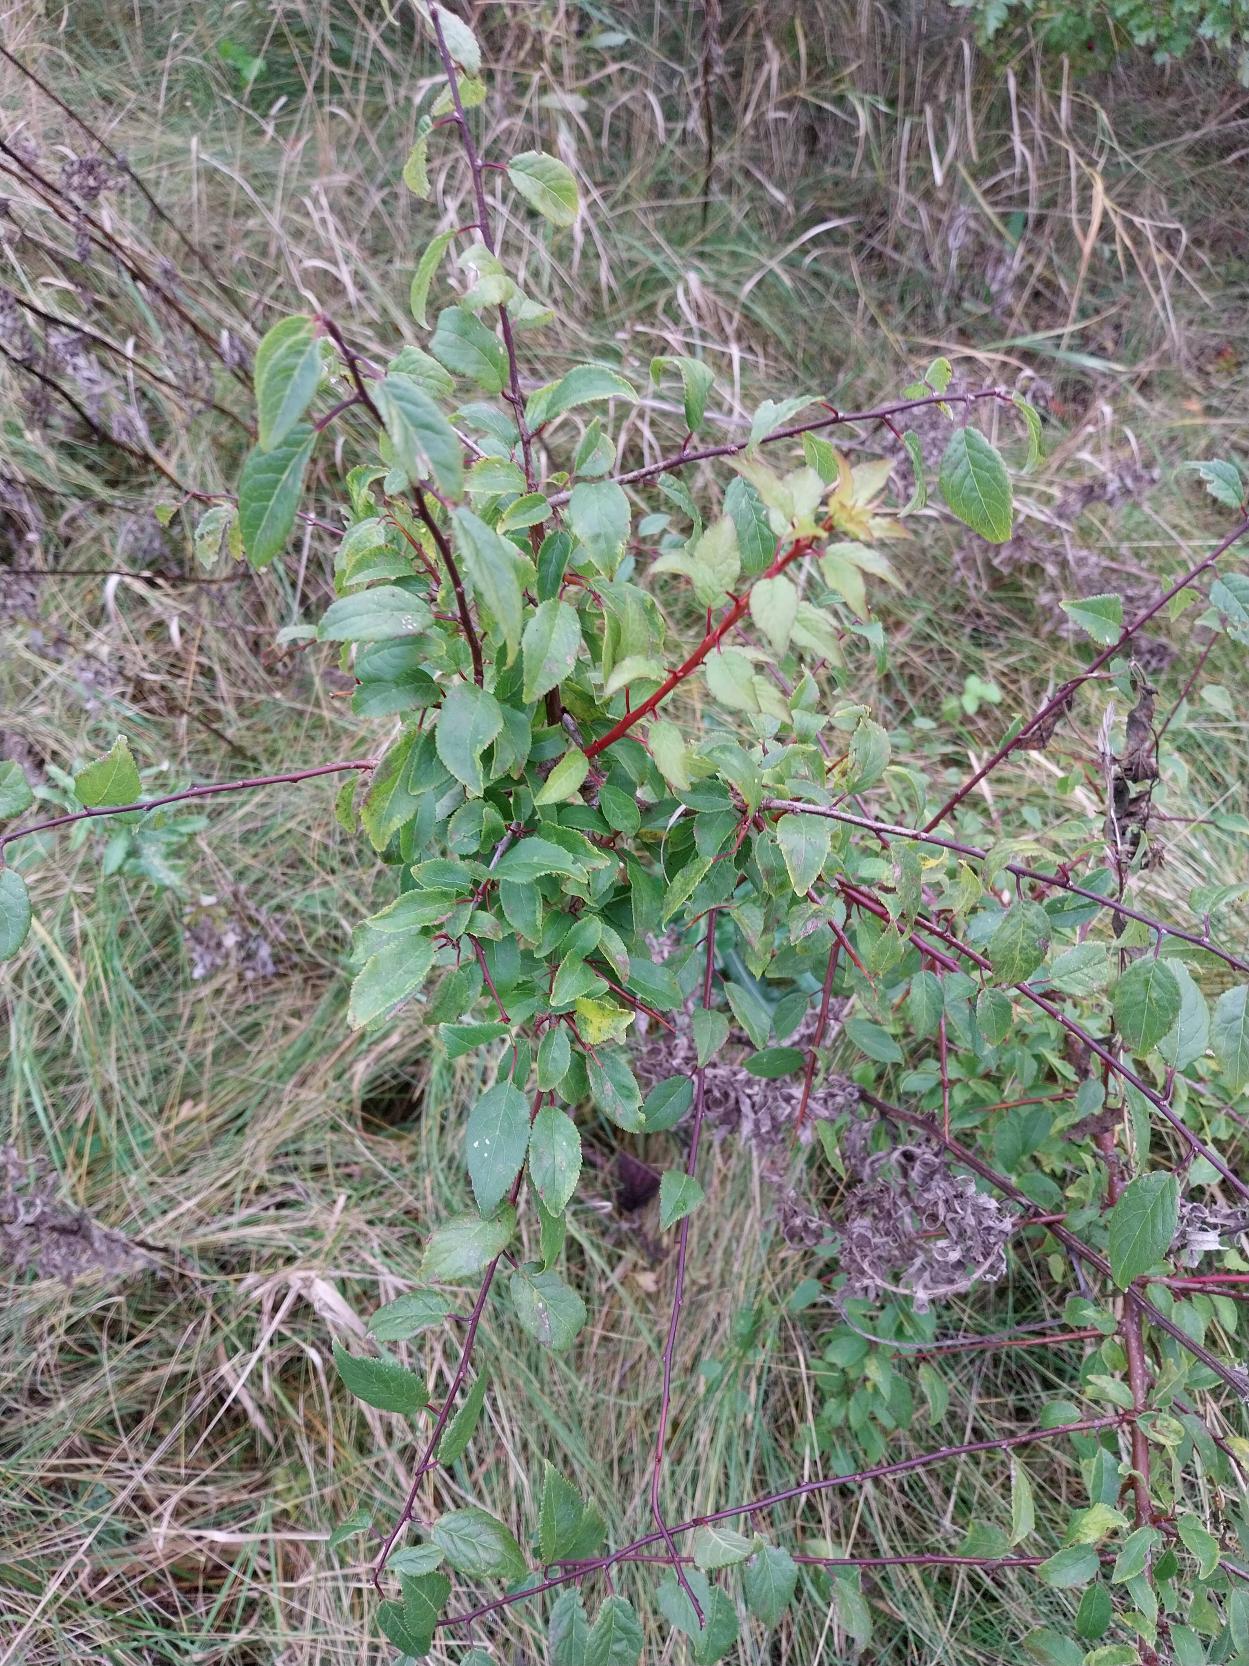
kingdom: Plantae
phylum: Tracheophyta
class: Magnoliopsida
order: Rosales
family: Rosaceae
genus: Prunus
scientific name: Prunus cerasifera
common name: Mirabel
